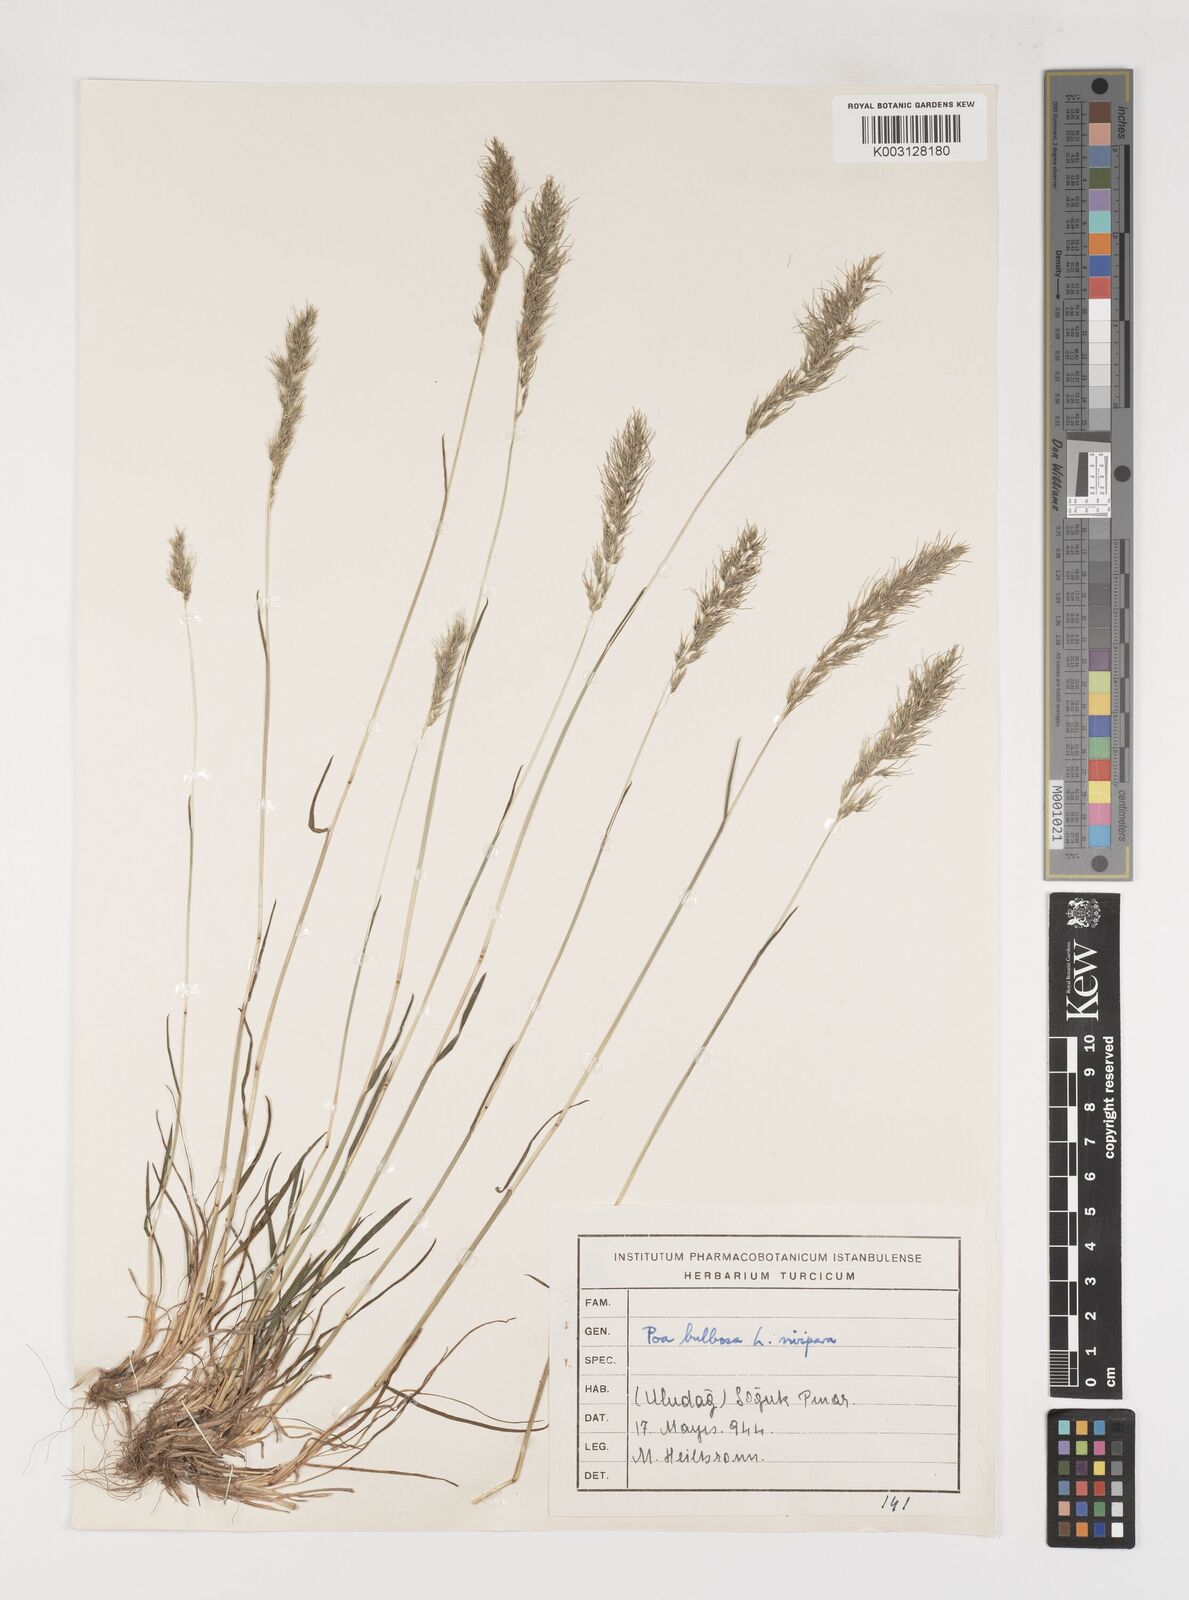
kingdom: Plantae
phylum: Tracheophyta
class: Liliopsida
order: Poales
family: Poaceae
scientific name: Poaceae
